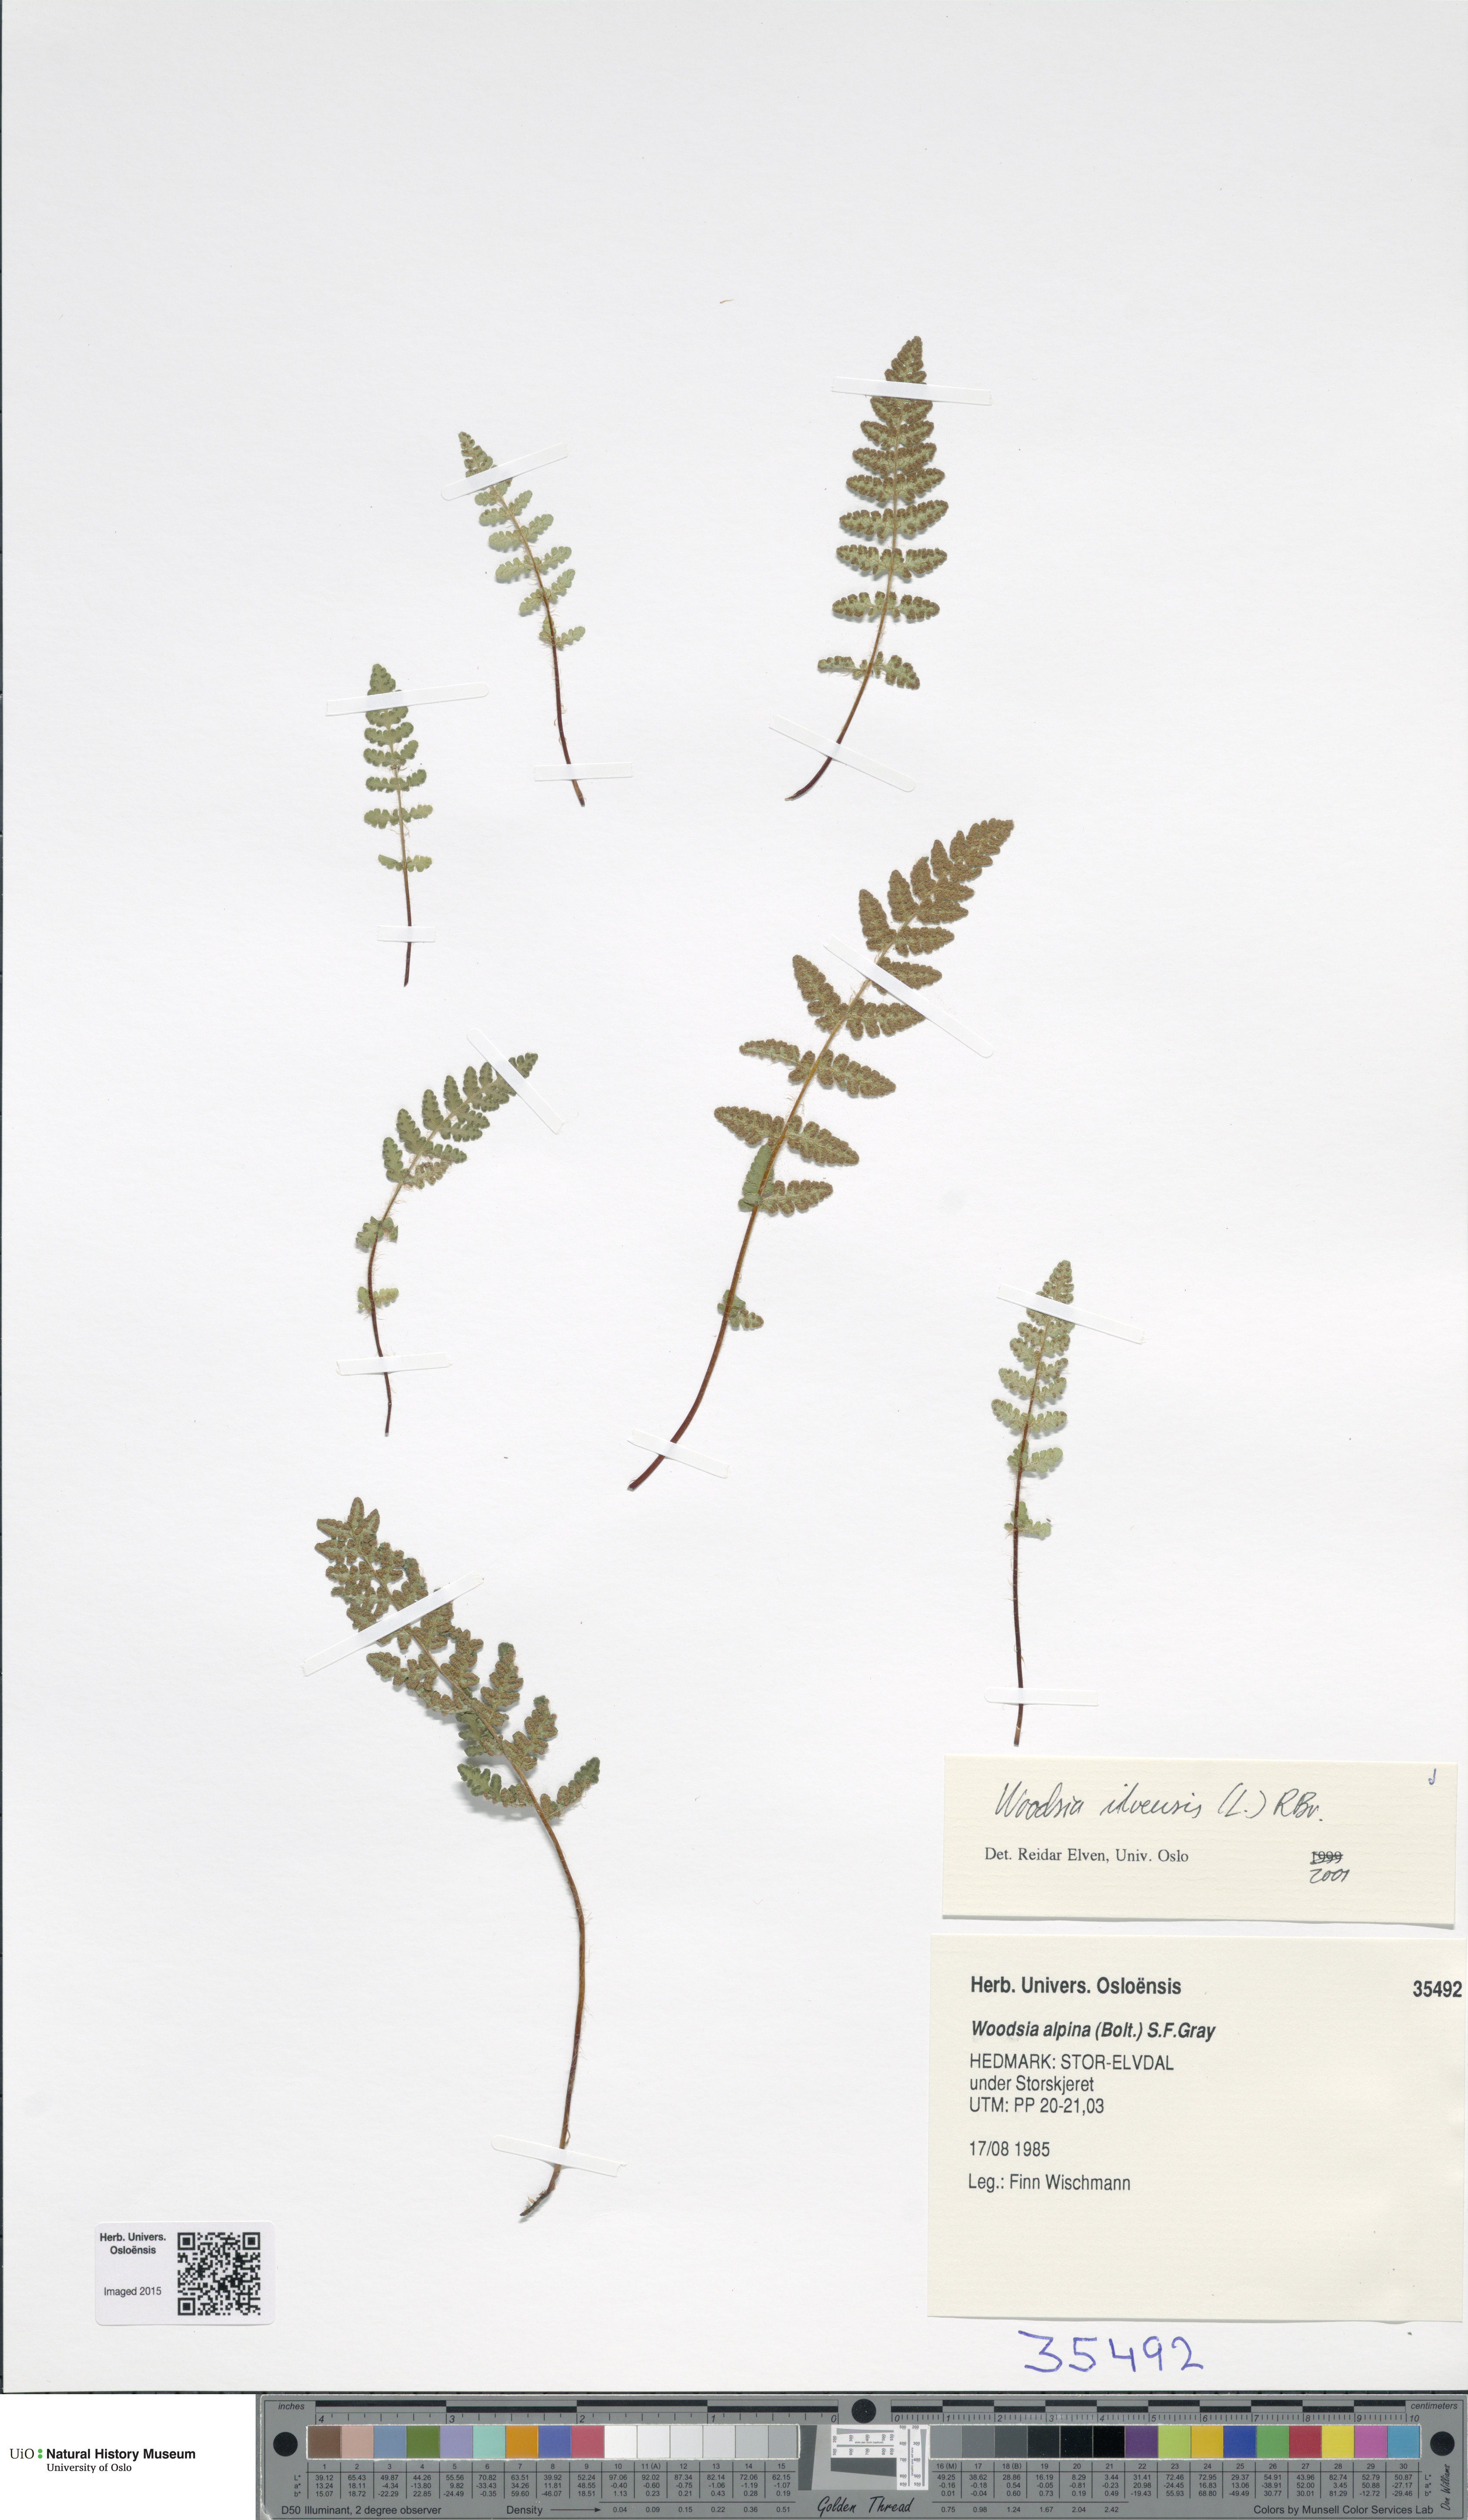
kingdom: Plantae
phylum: Tracheophyta
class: Polypodiopsida
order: Polypodiales
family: Woodsiaceae
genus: Woodsia
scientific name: Woodsia ilvensis
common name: Fragrant woodsia
